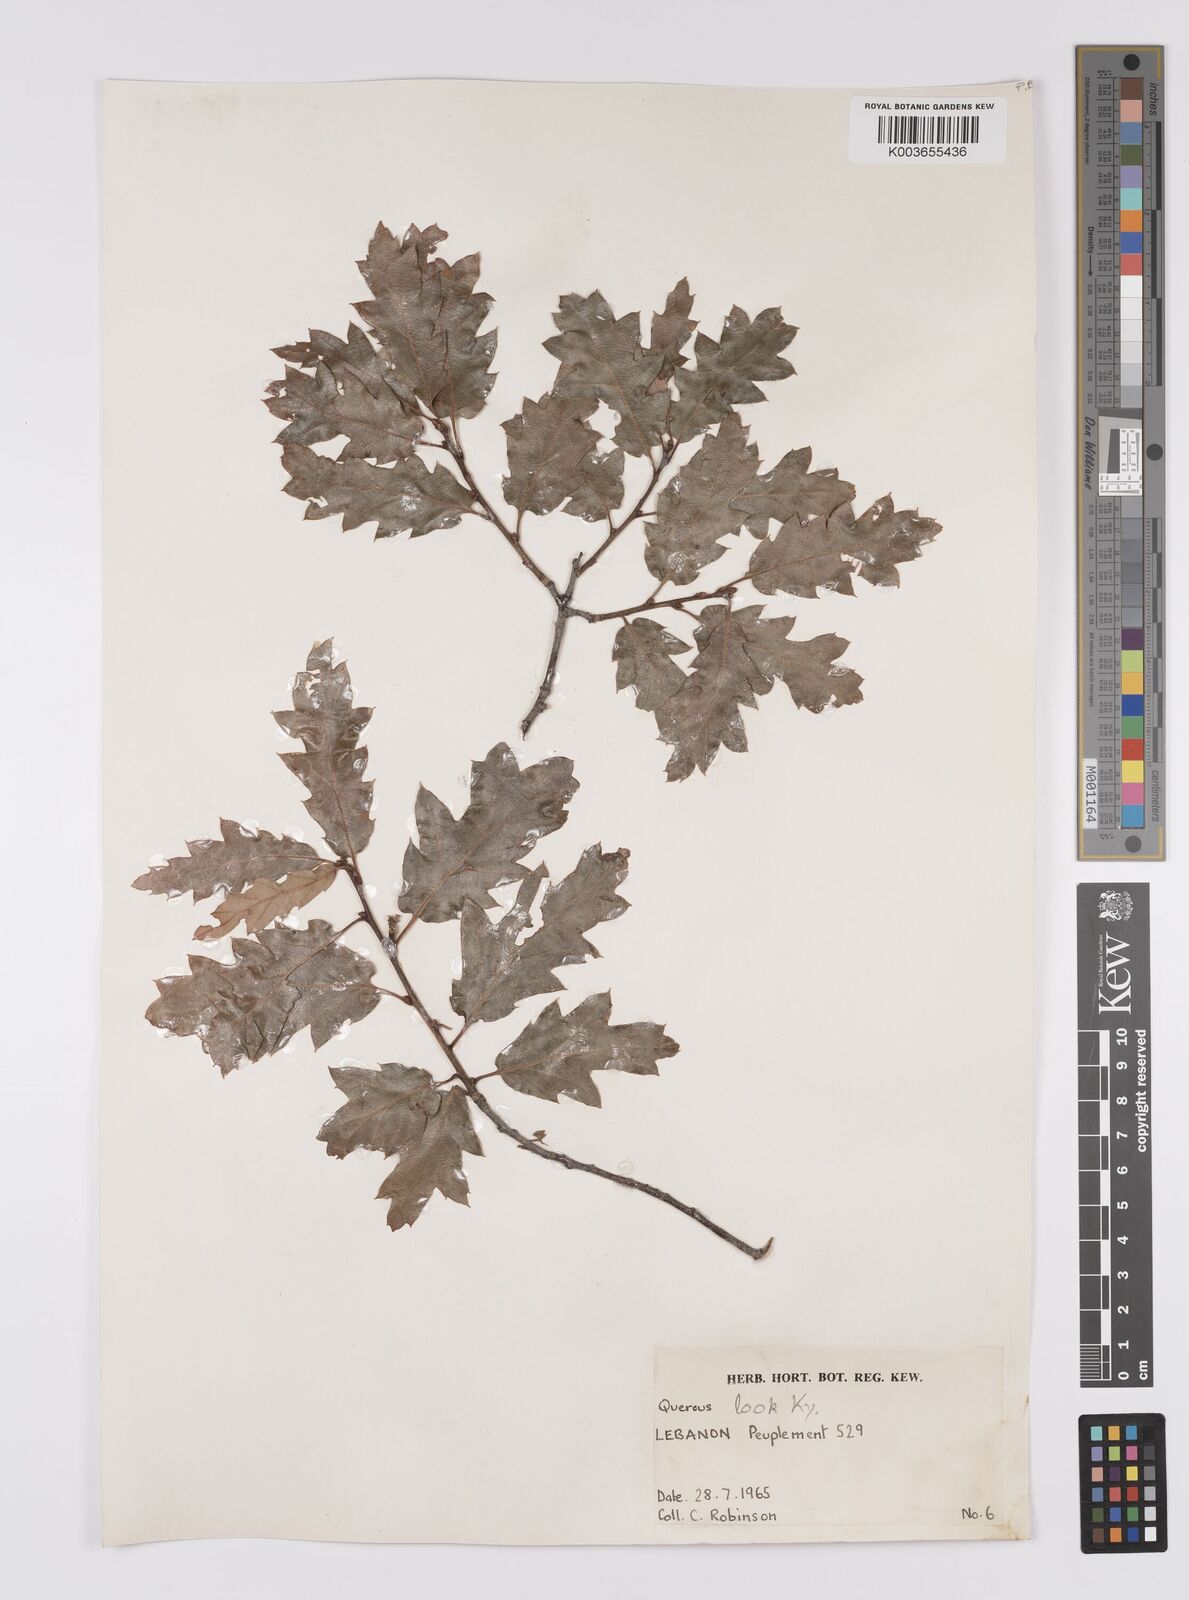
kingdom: Plantae
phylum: Tracheophyta
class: Magnoliopsida
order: Fagales
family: Fagaceae
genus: Quercus
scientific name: Quercus look
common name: Look oak
